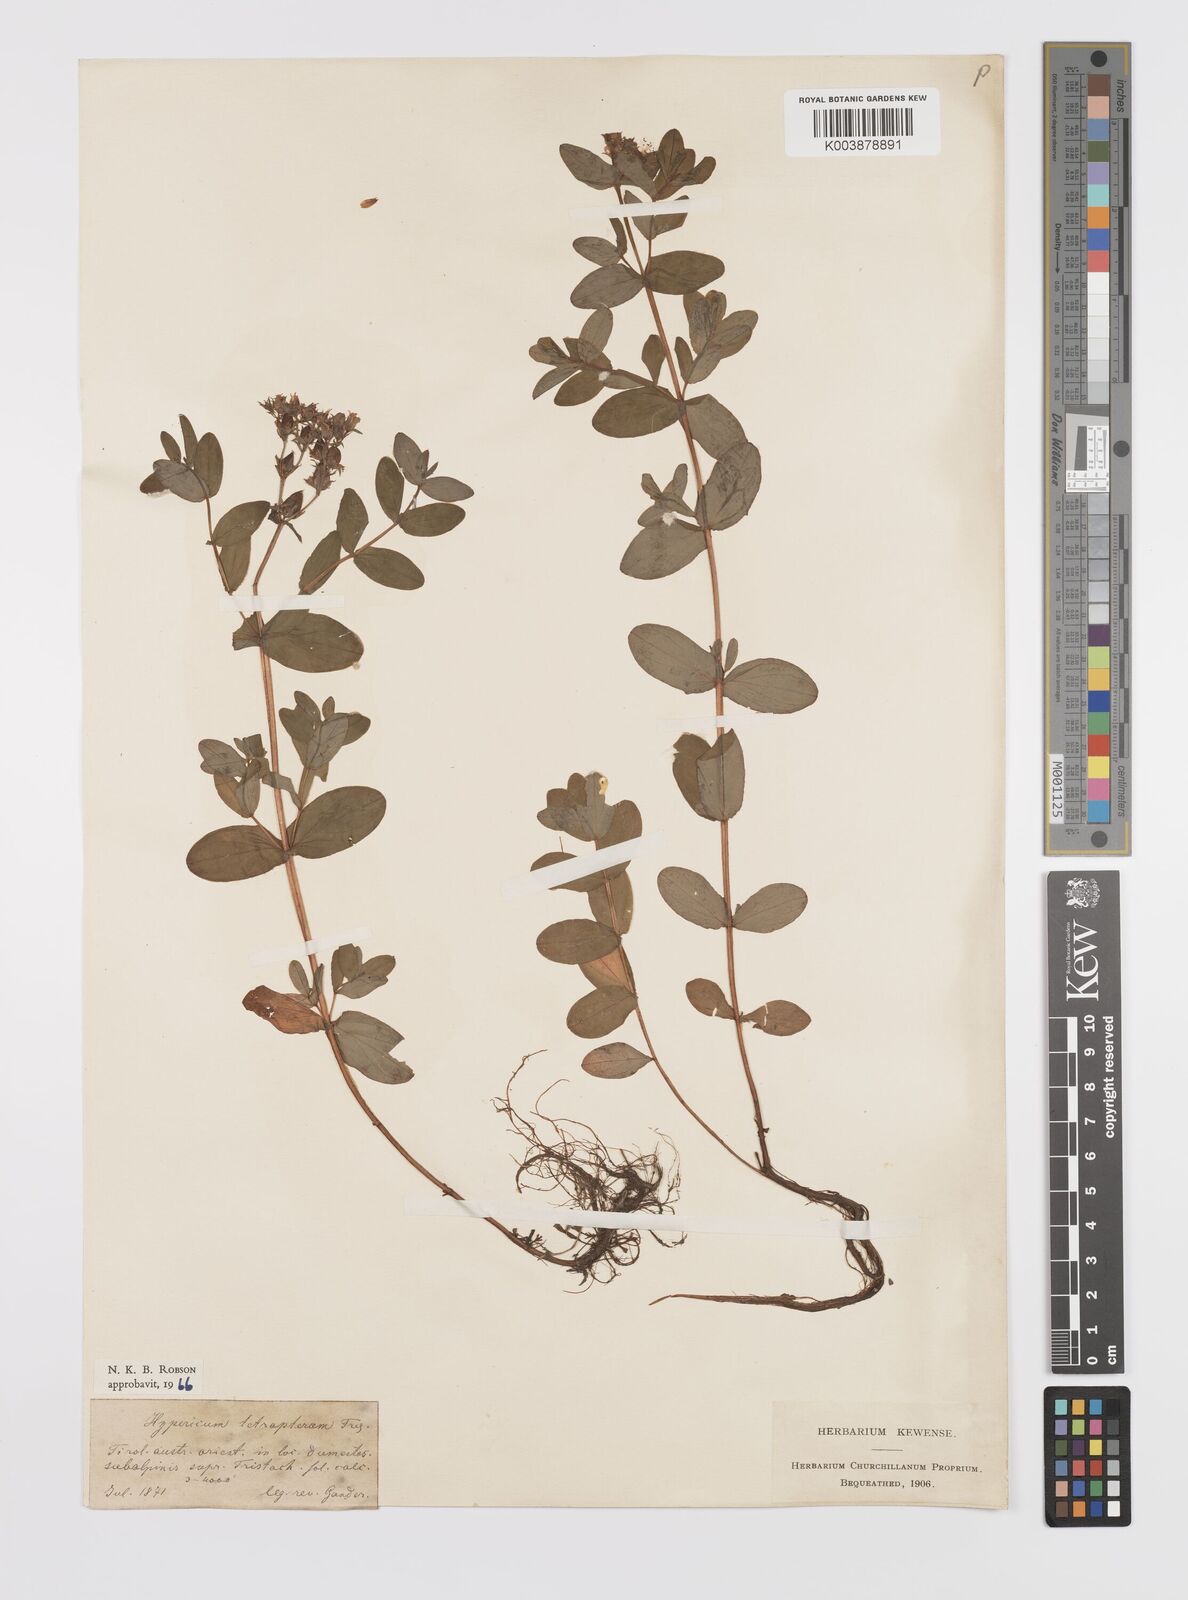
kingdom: Plantae
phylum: Tracheophyta
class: Magnoliopsida
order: Malpighiales
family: Hypericaceae
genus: Hypericum
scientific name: Hypericum tetrapterum
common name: Square-stalked st. john's-wort
